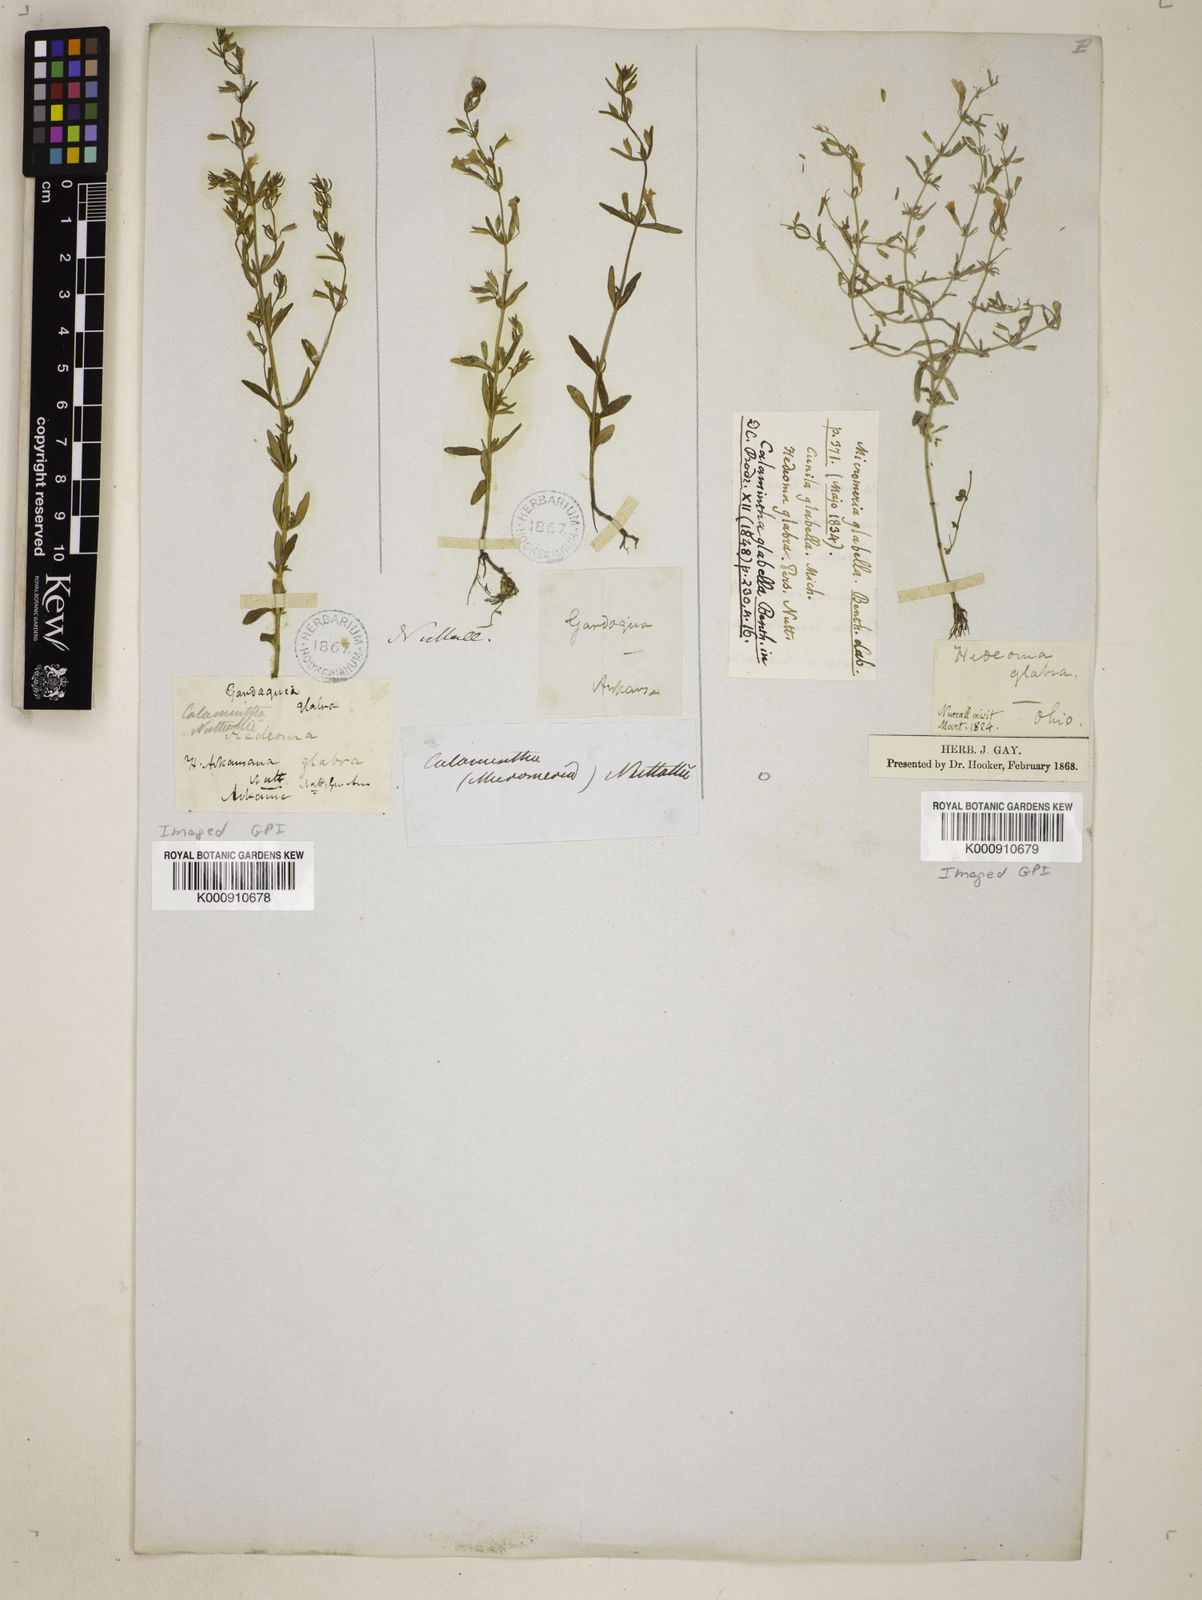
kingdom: Plantae
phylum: Tracheophyta
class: Magnoliopsida
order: Lamiales
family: Lamiaceae
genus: Clinopodium
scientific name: Clinopodium glabellum
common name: Ozark calamint
